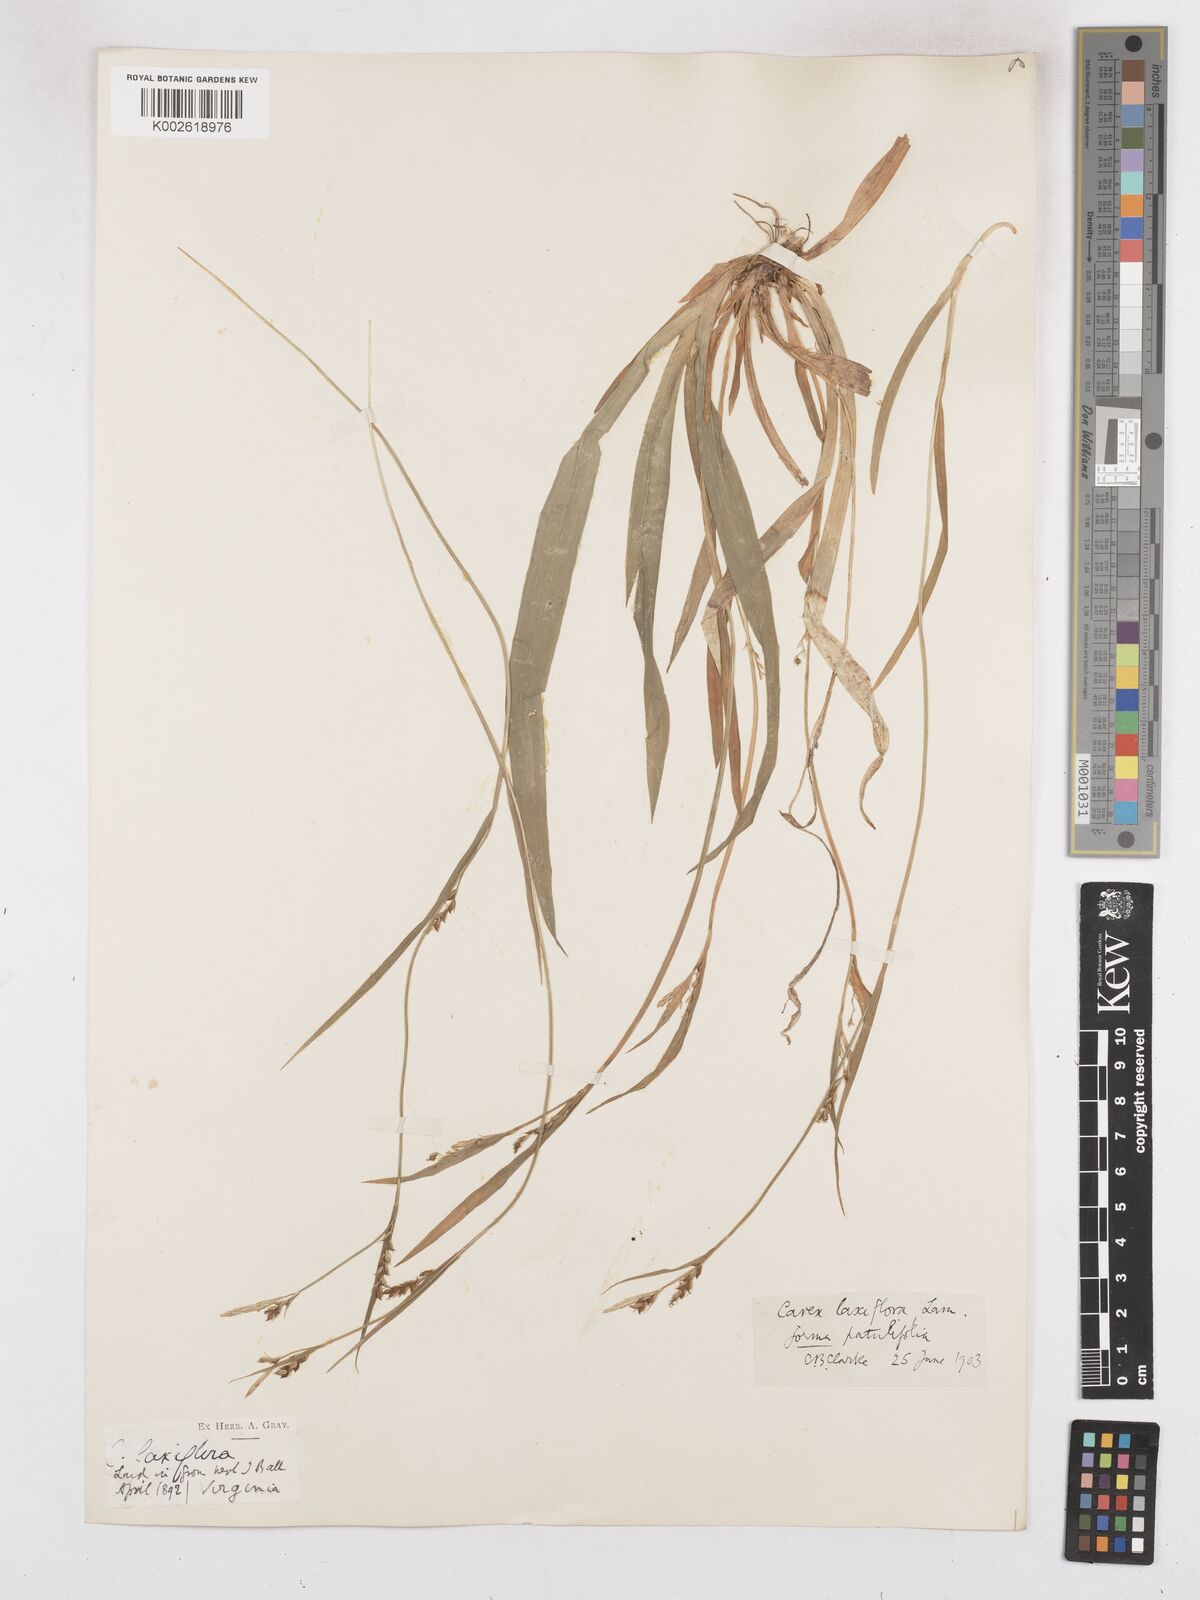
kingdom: Plantae
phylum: Tracheophyta
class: Liliopsida
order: Poales
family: Cyperaceae
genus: Carex
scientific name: Carex striatula
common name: Lined sedge
